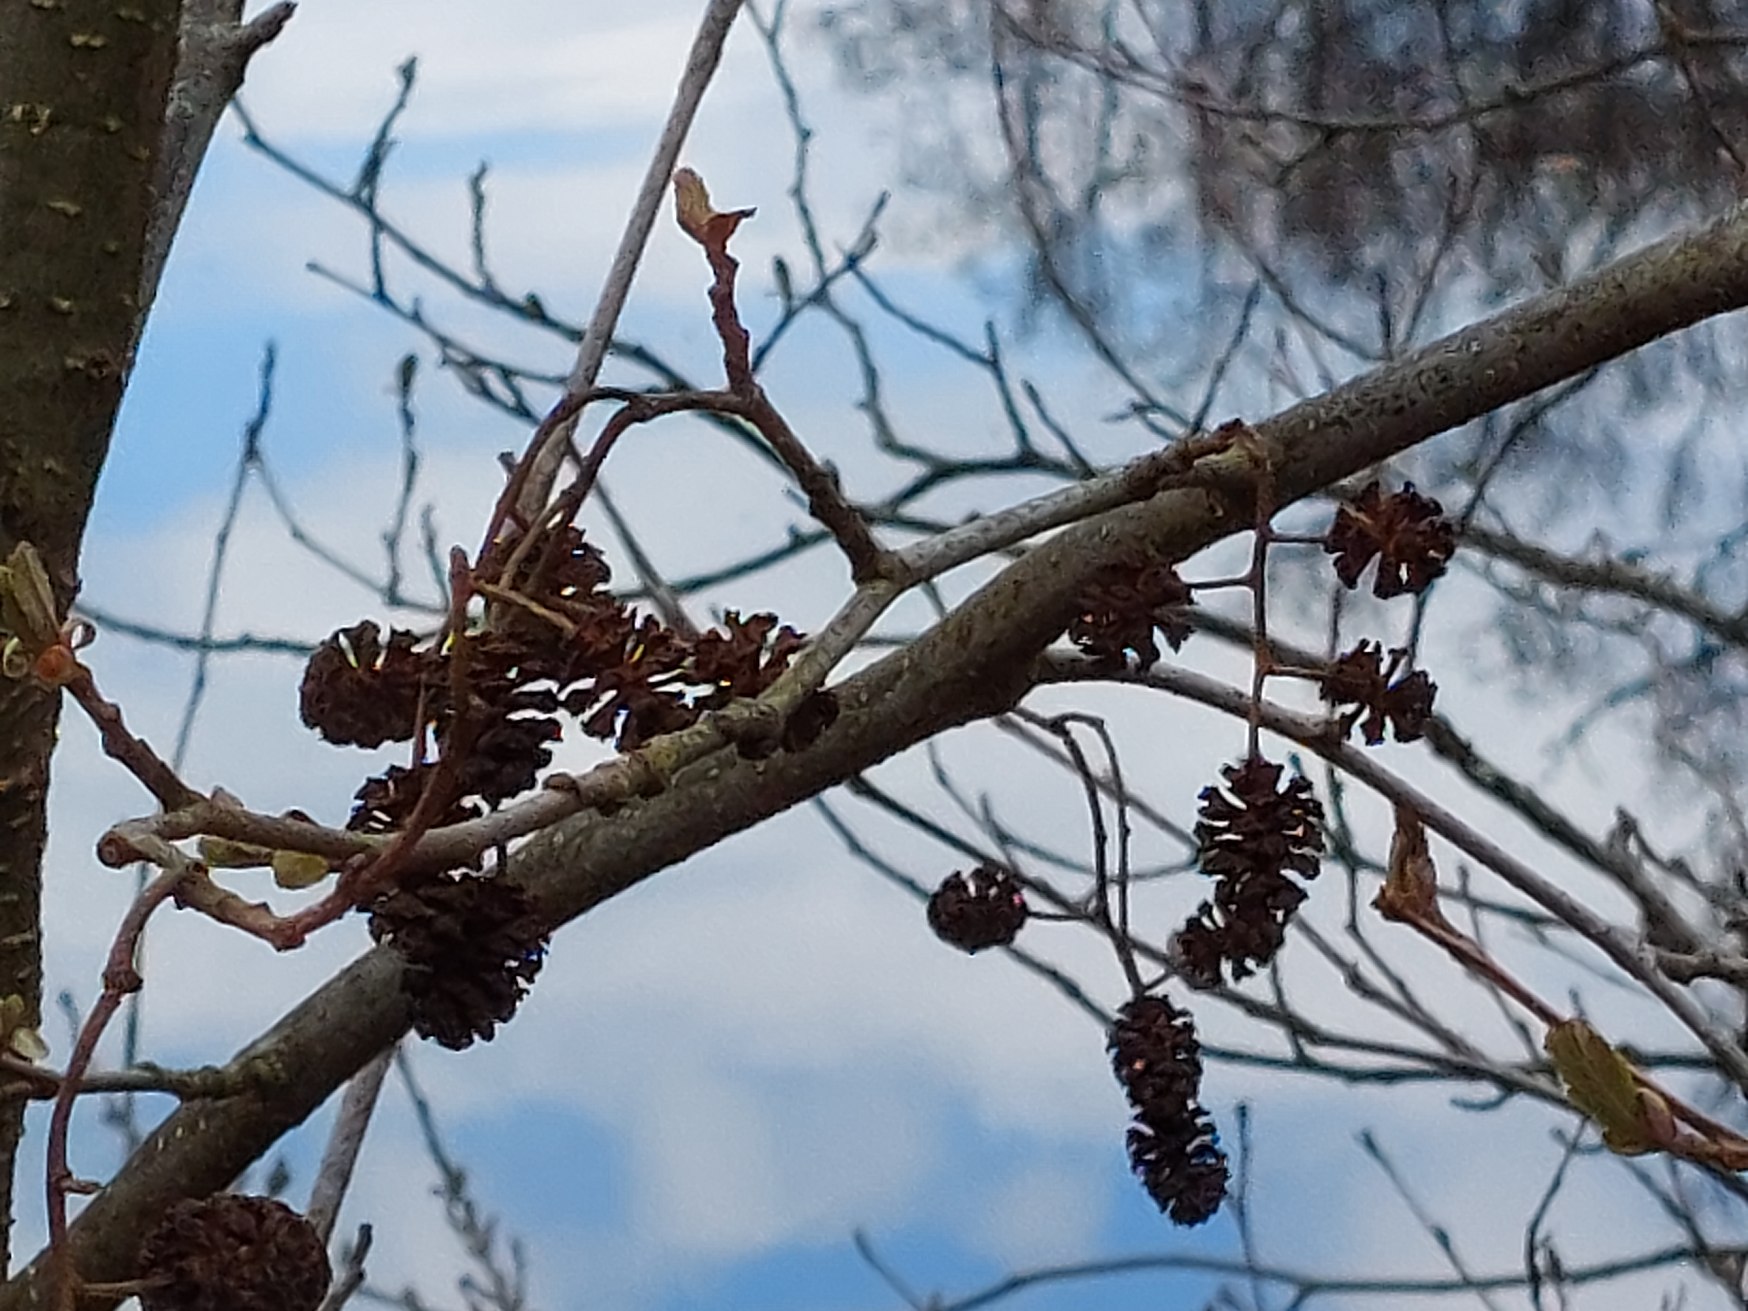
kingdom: Plantae
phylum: Tracheophyta
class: Magnoliopsida
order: Fagales
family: Betulaceae
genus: Alnus
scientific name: Alnus glutinosa
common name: Rød-el
